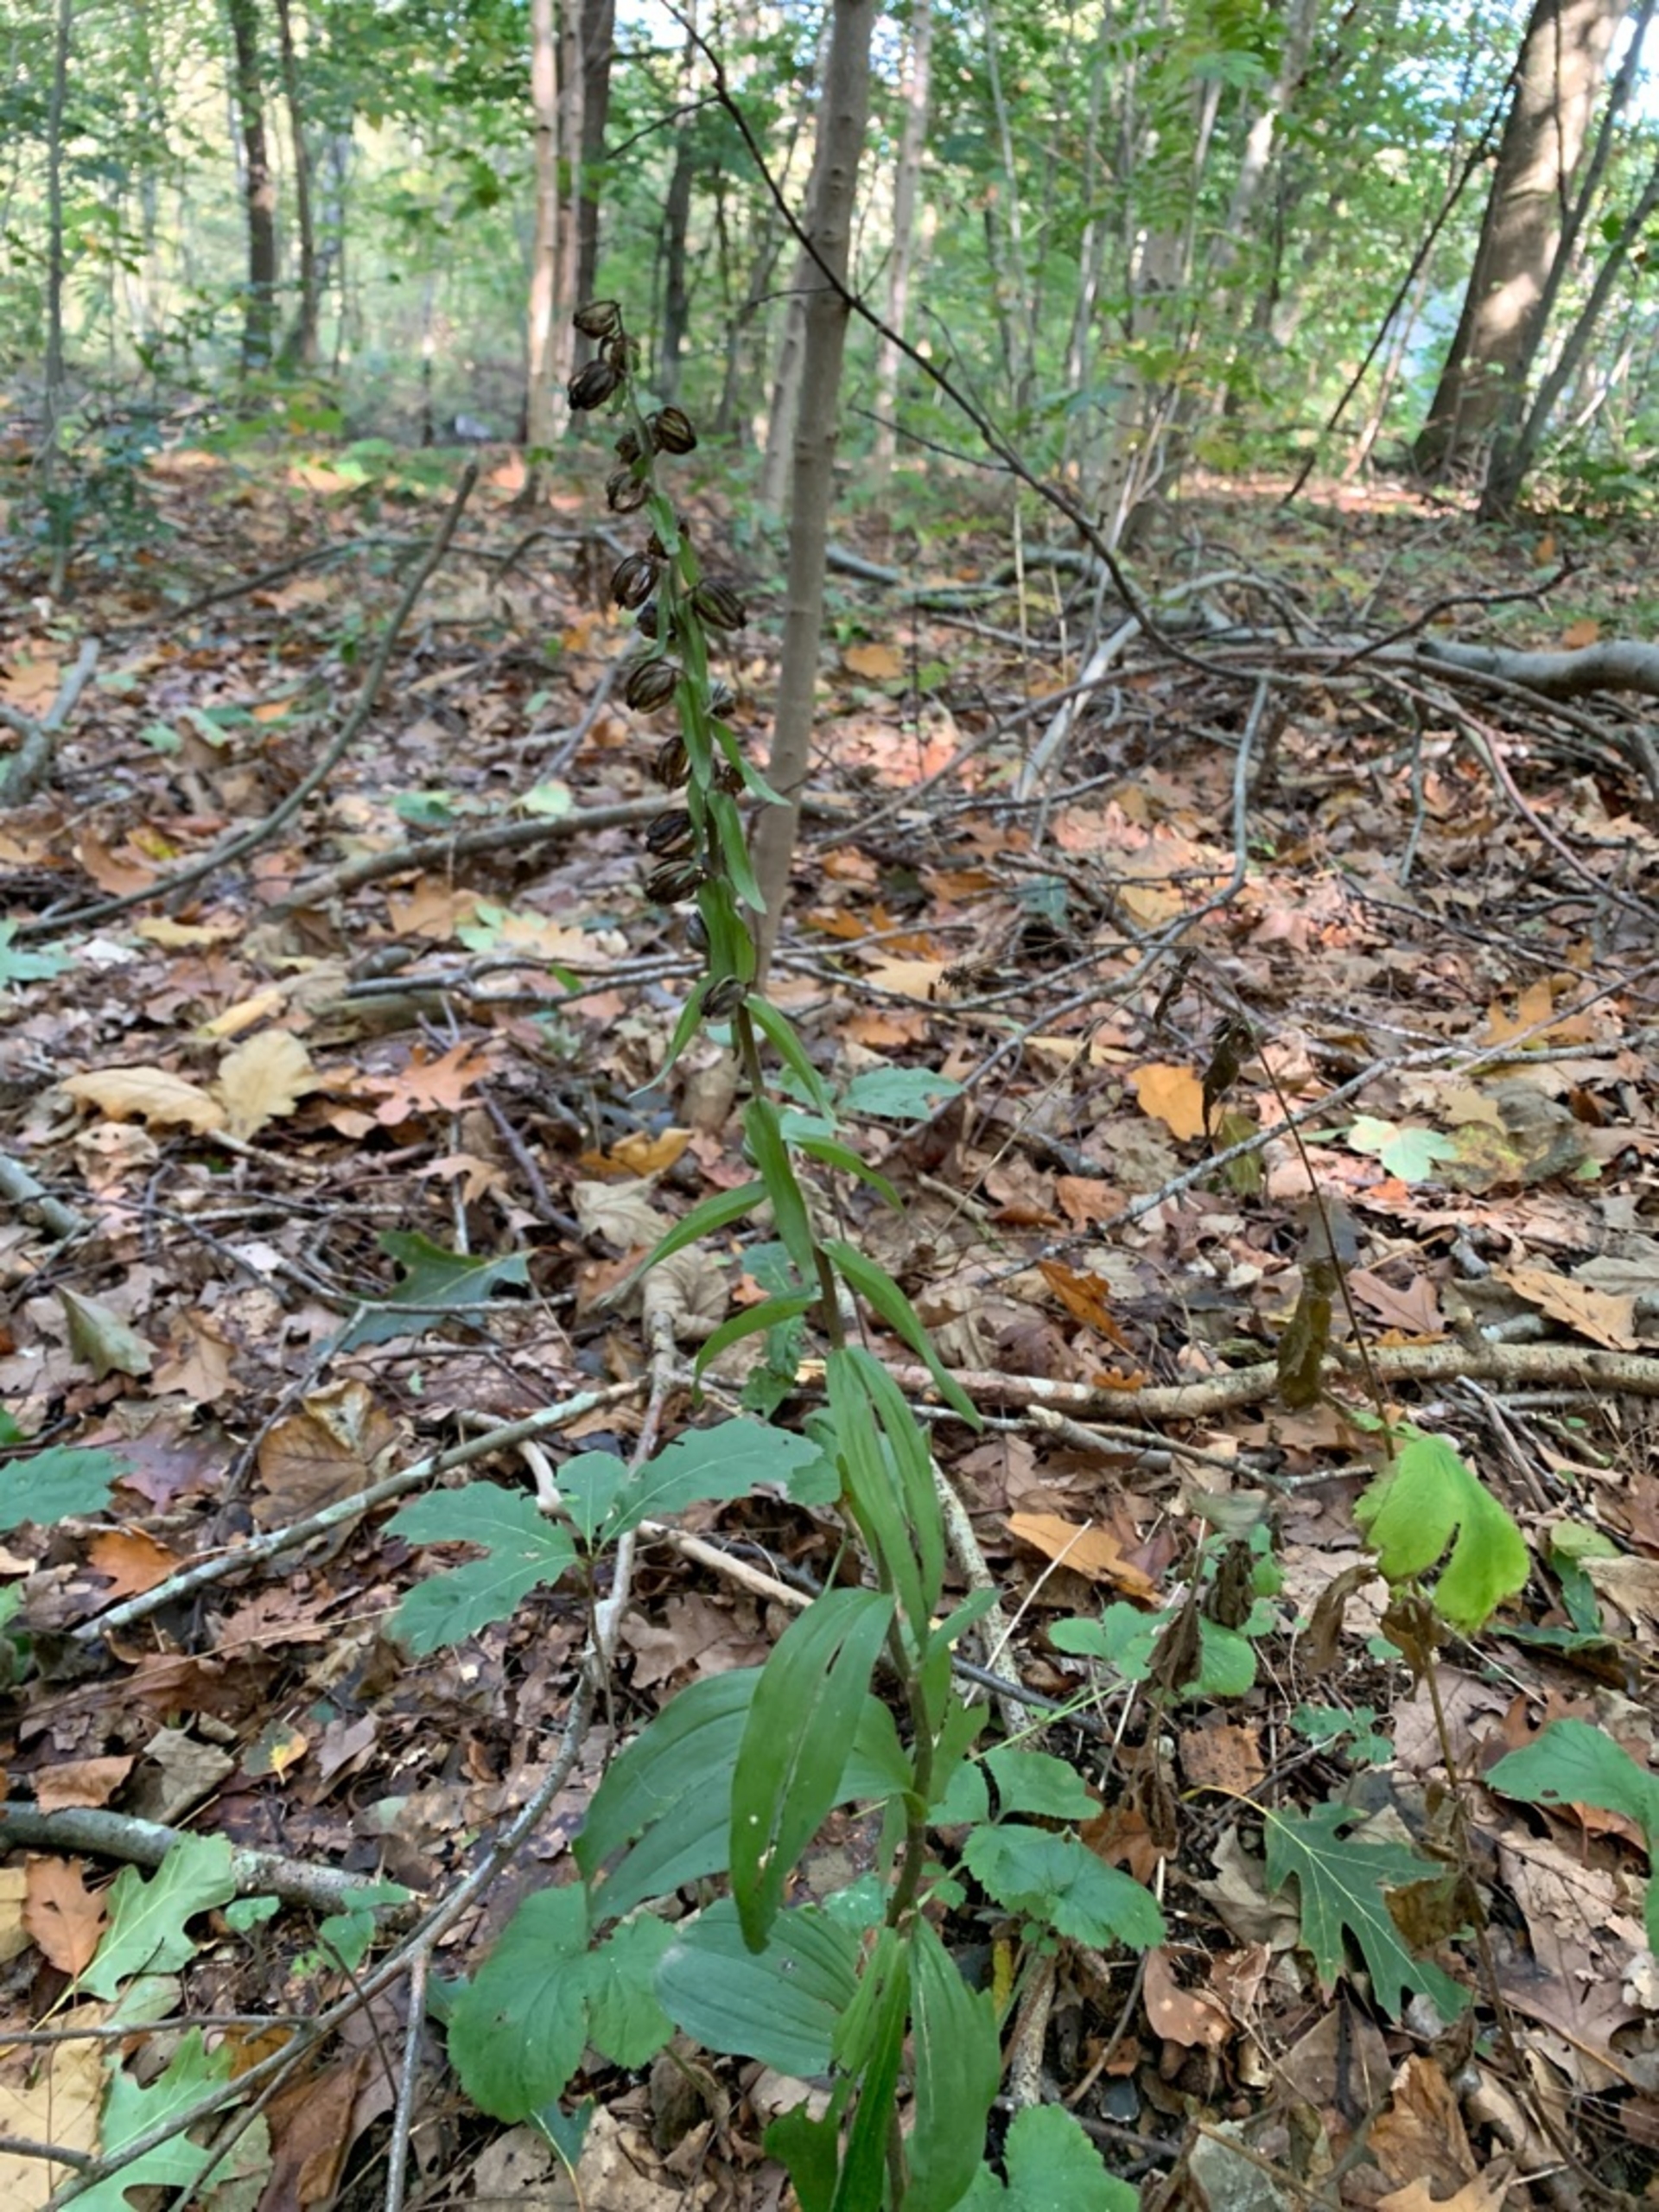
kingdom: Plantae
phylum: Tracheophyta
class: Liliopsida
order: Asparagales
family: Orchidaceae
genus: Epipactis
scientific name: Epipactis helleborine
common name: Skov-hullæbe
